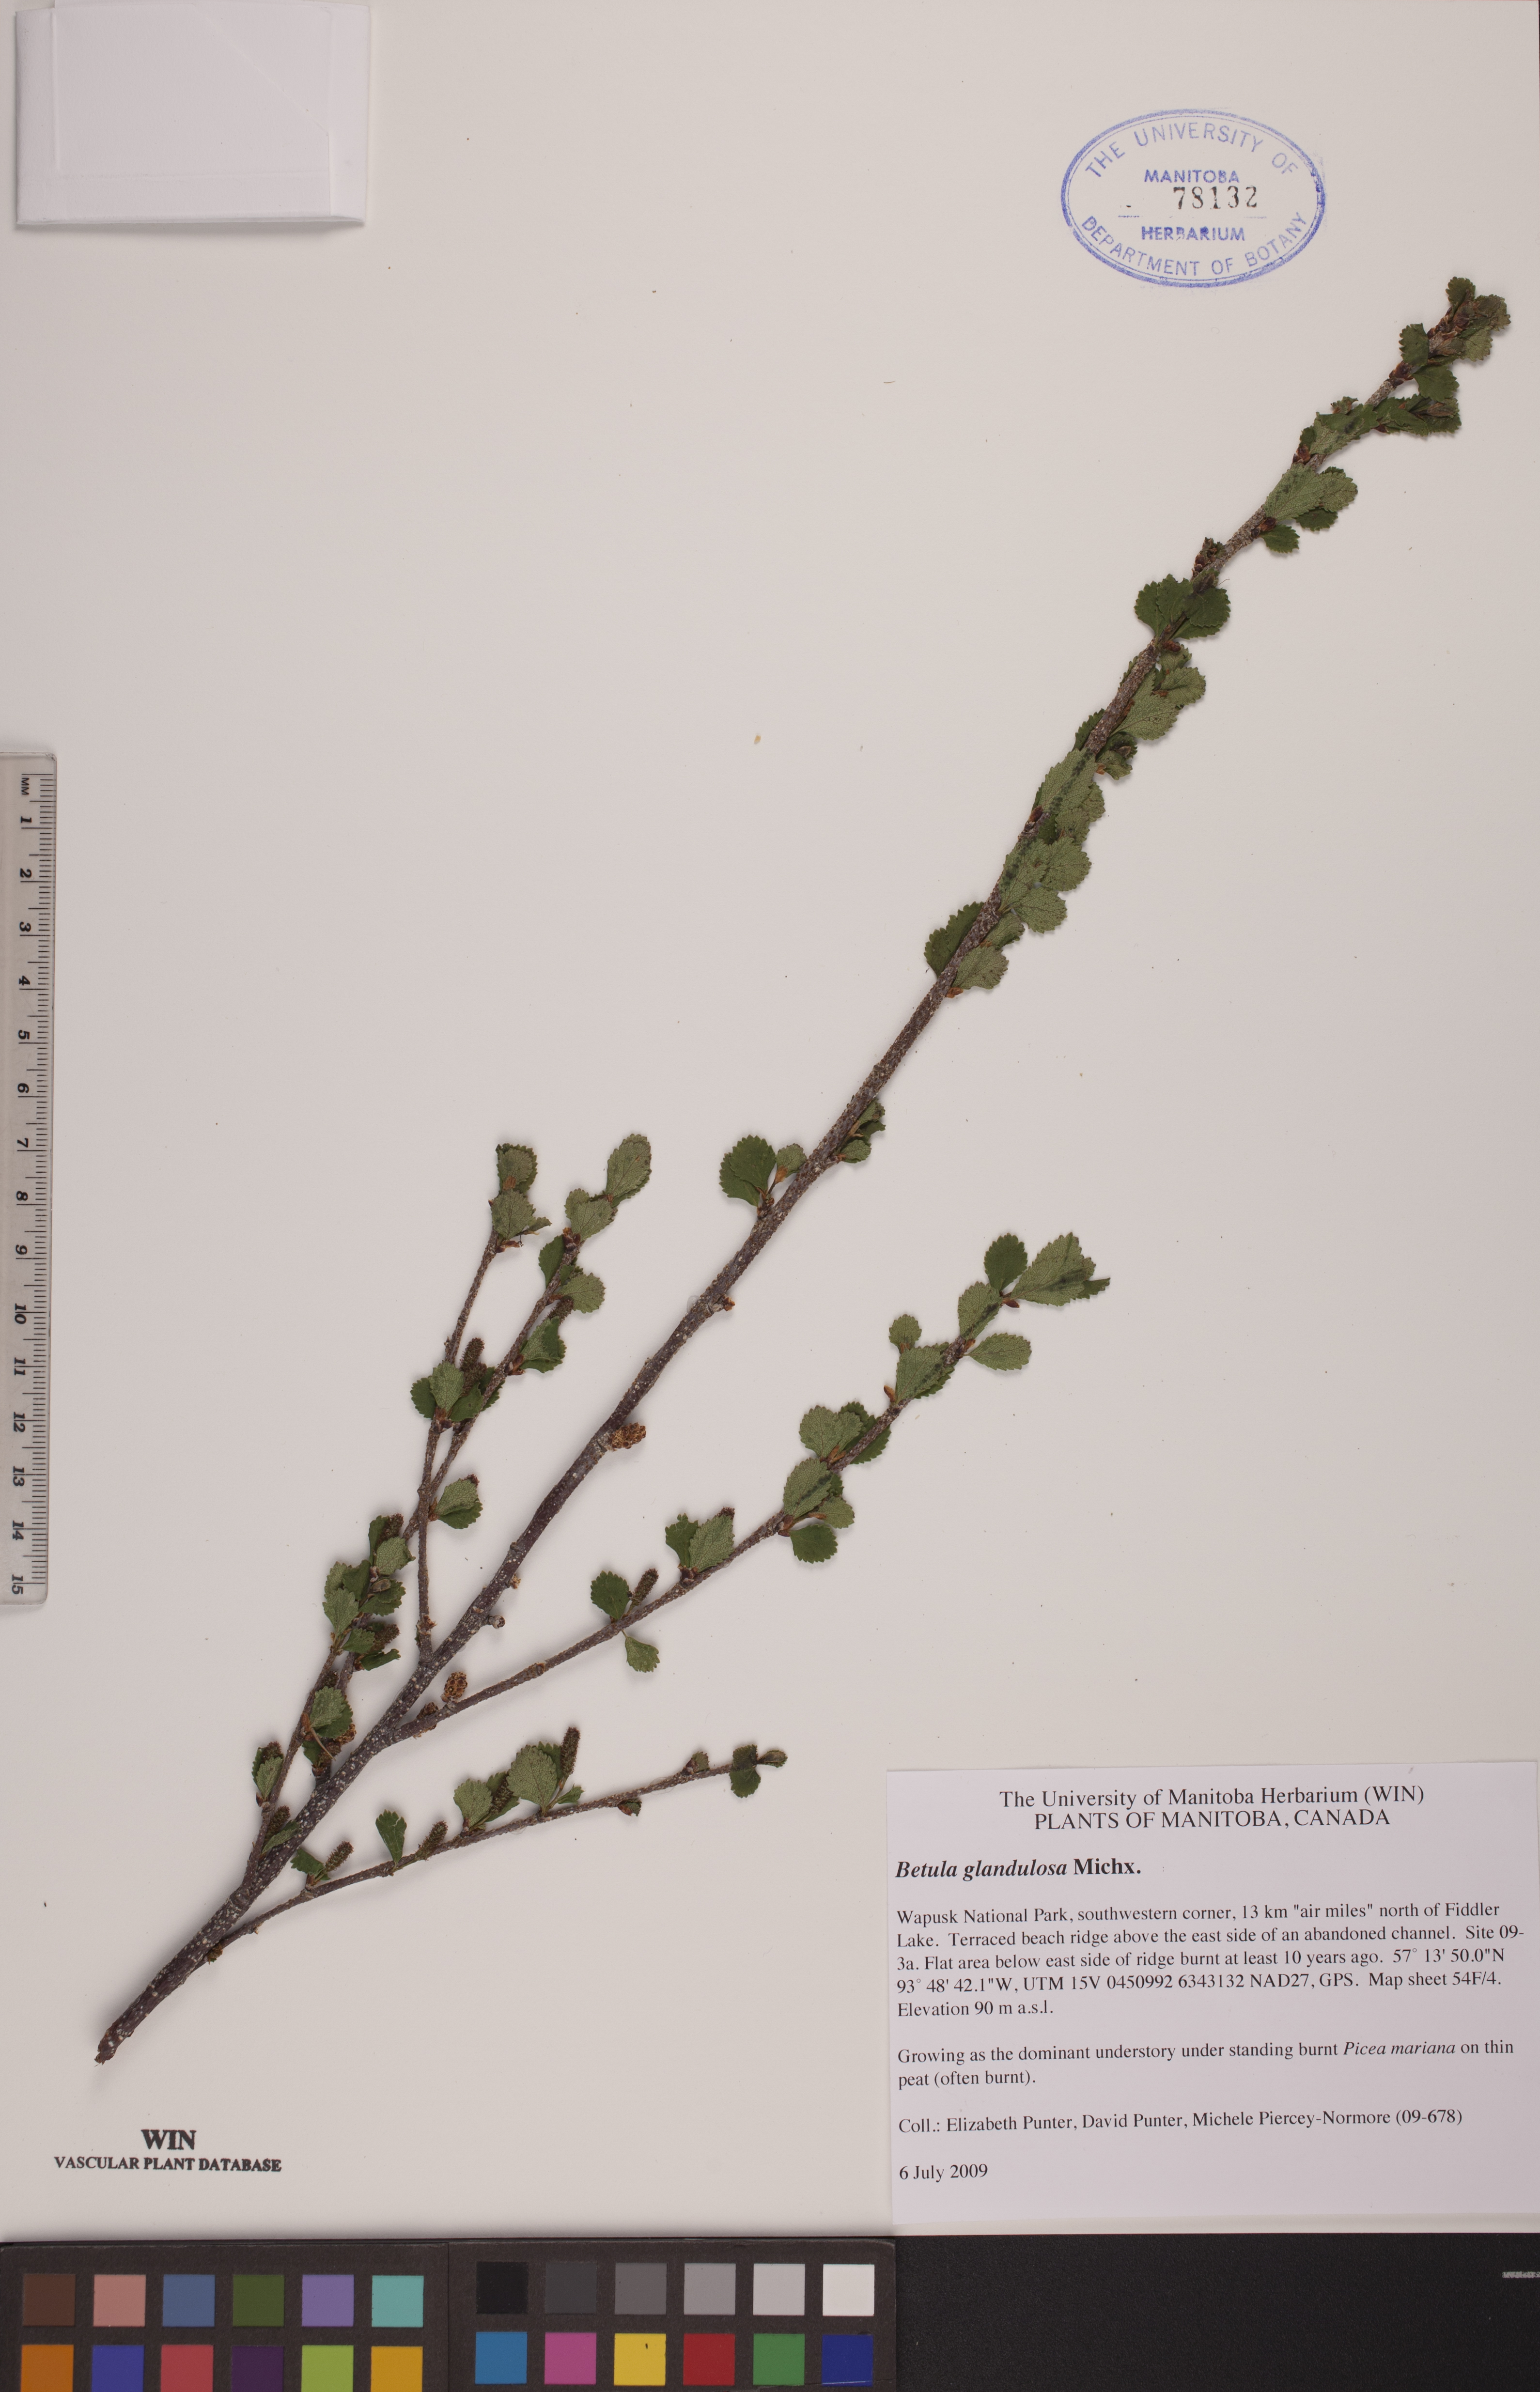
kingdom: Plantae
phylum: Tracheophyta
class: Magnoliopsida
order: Fagales
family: Betulaceae
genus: Betula
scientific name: Betula glandulosa
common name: Dwarf birch
